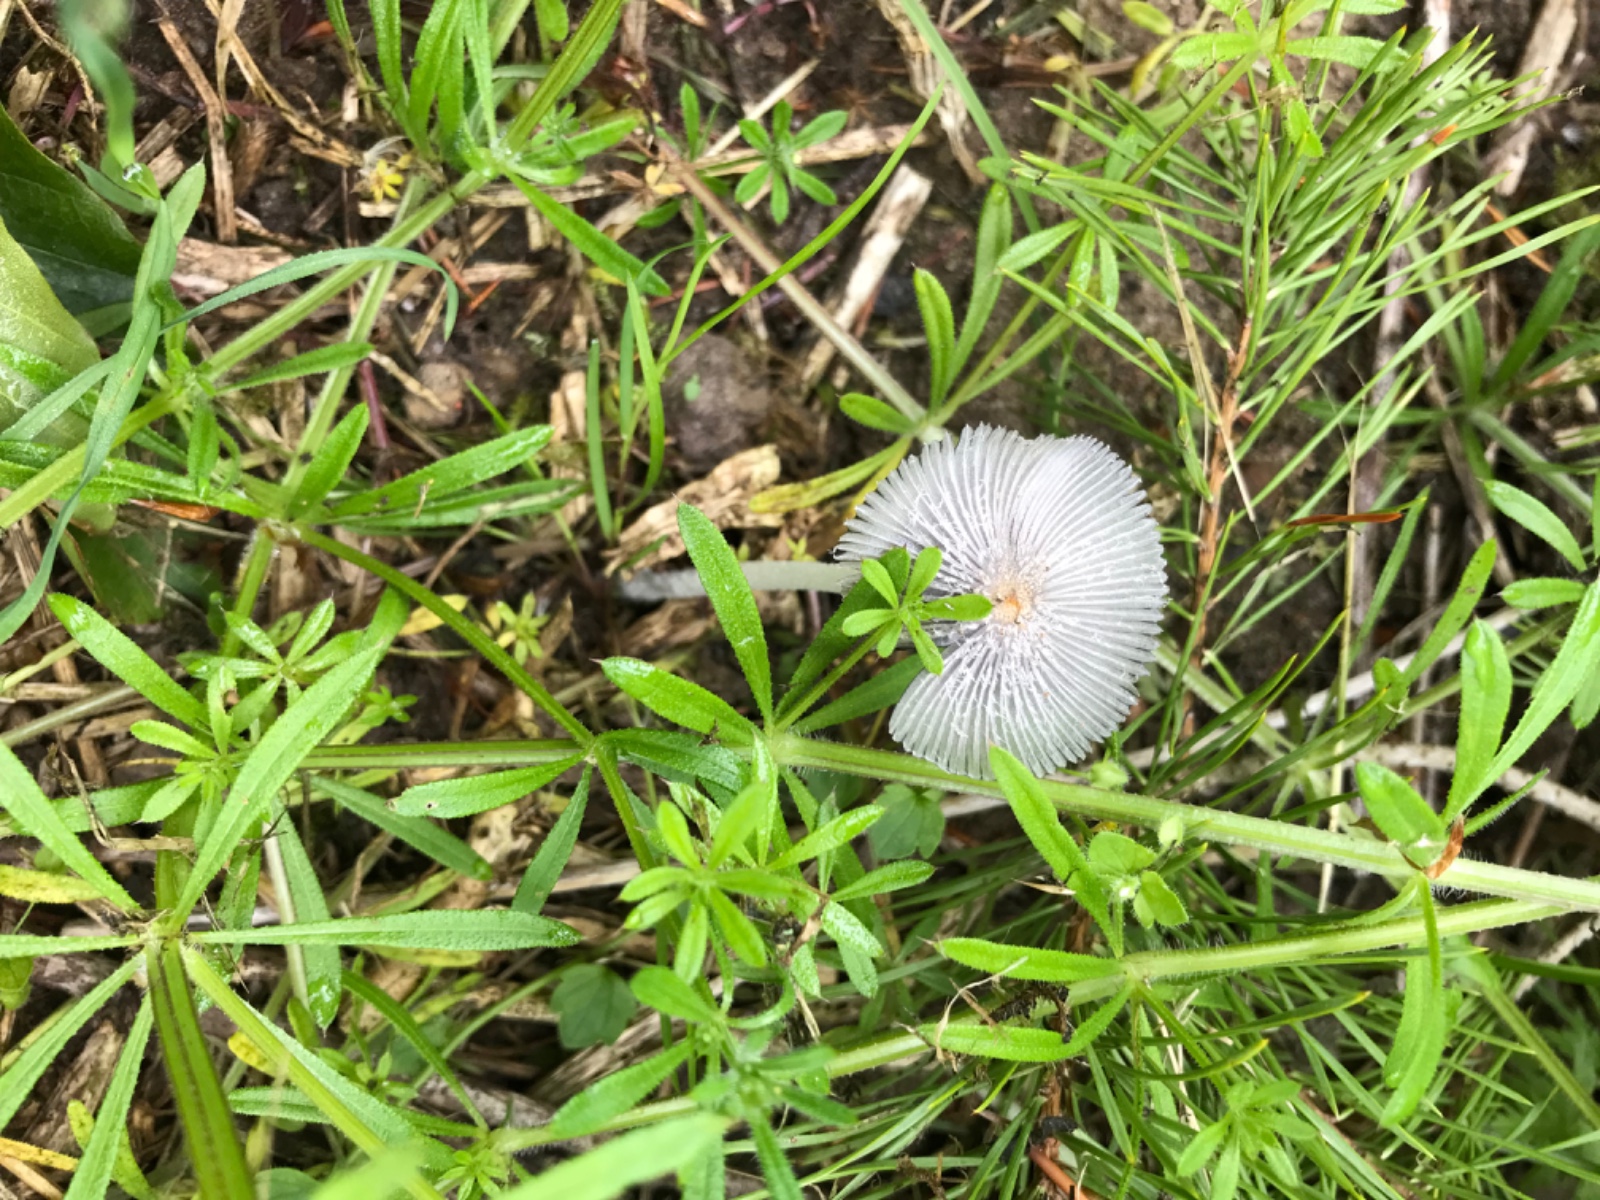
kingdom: Fungi
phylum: Basidiomycota
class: Agaricomycetes
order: Agaricales
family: Psathyrellaceae
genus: Coprinopsis
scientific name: Coprinopsis lagopus
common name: dunstokket blækhat
